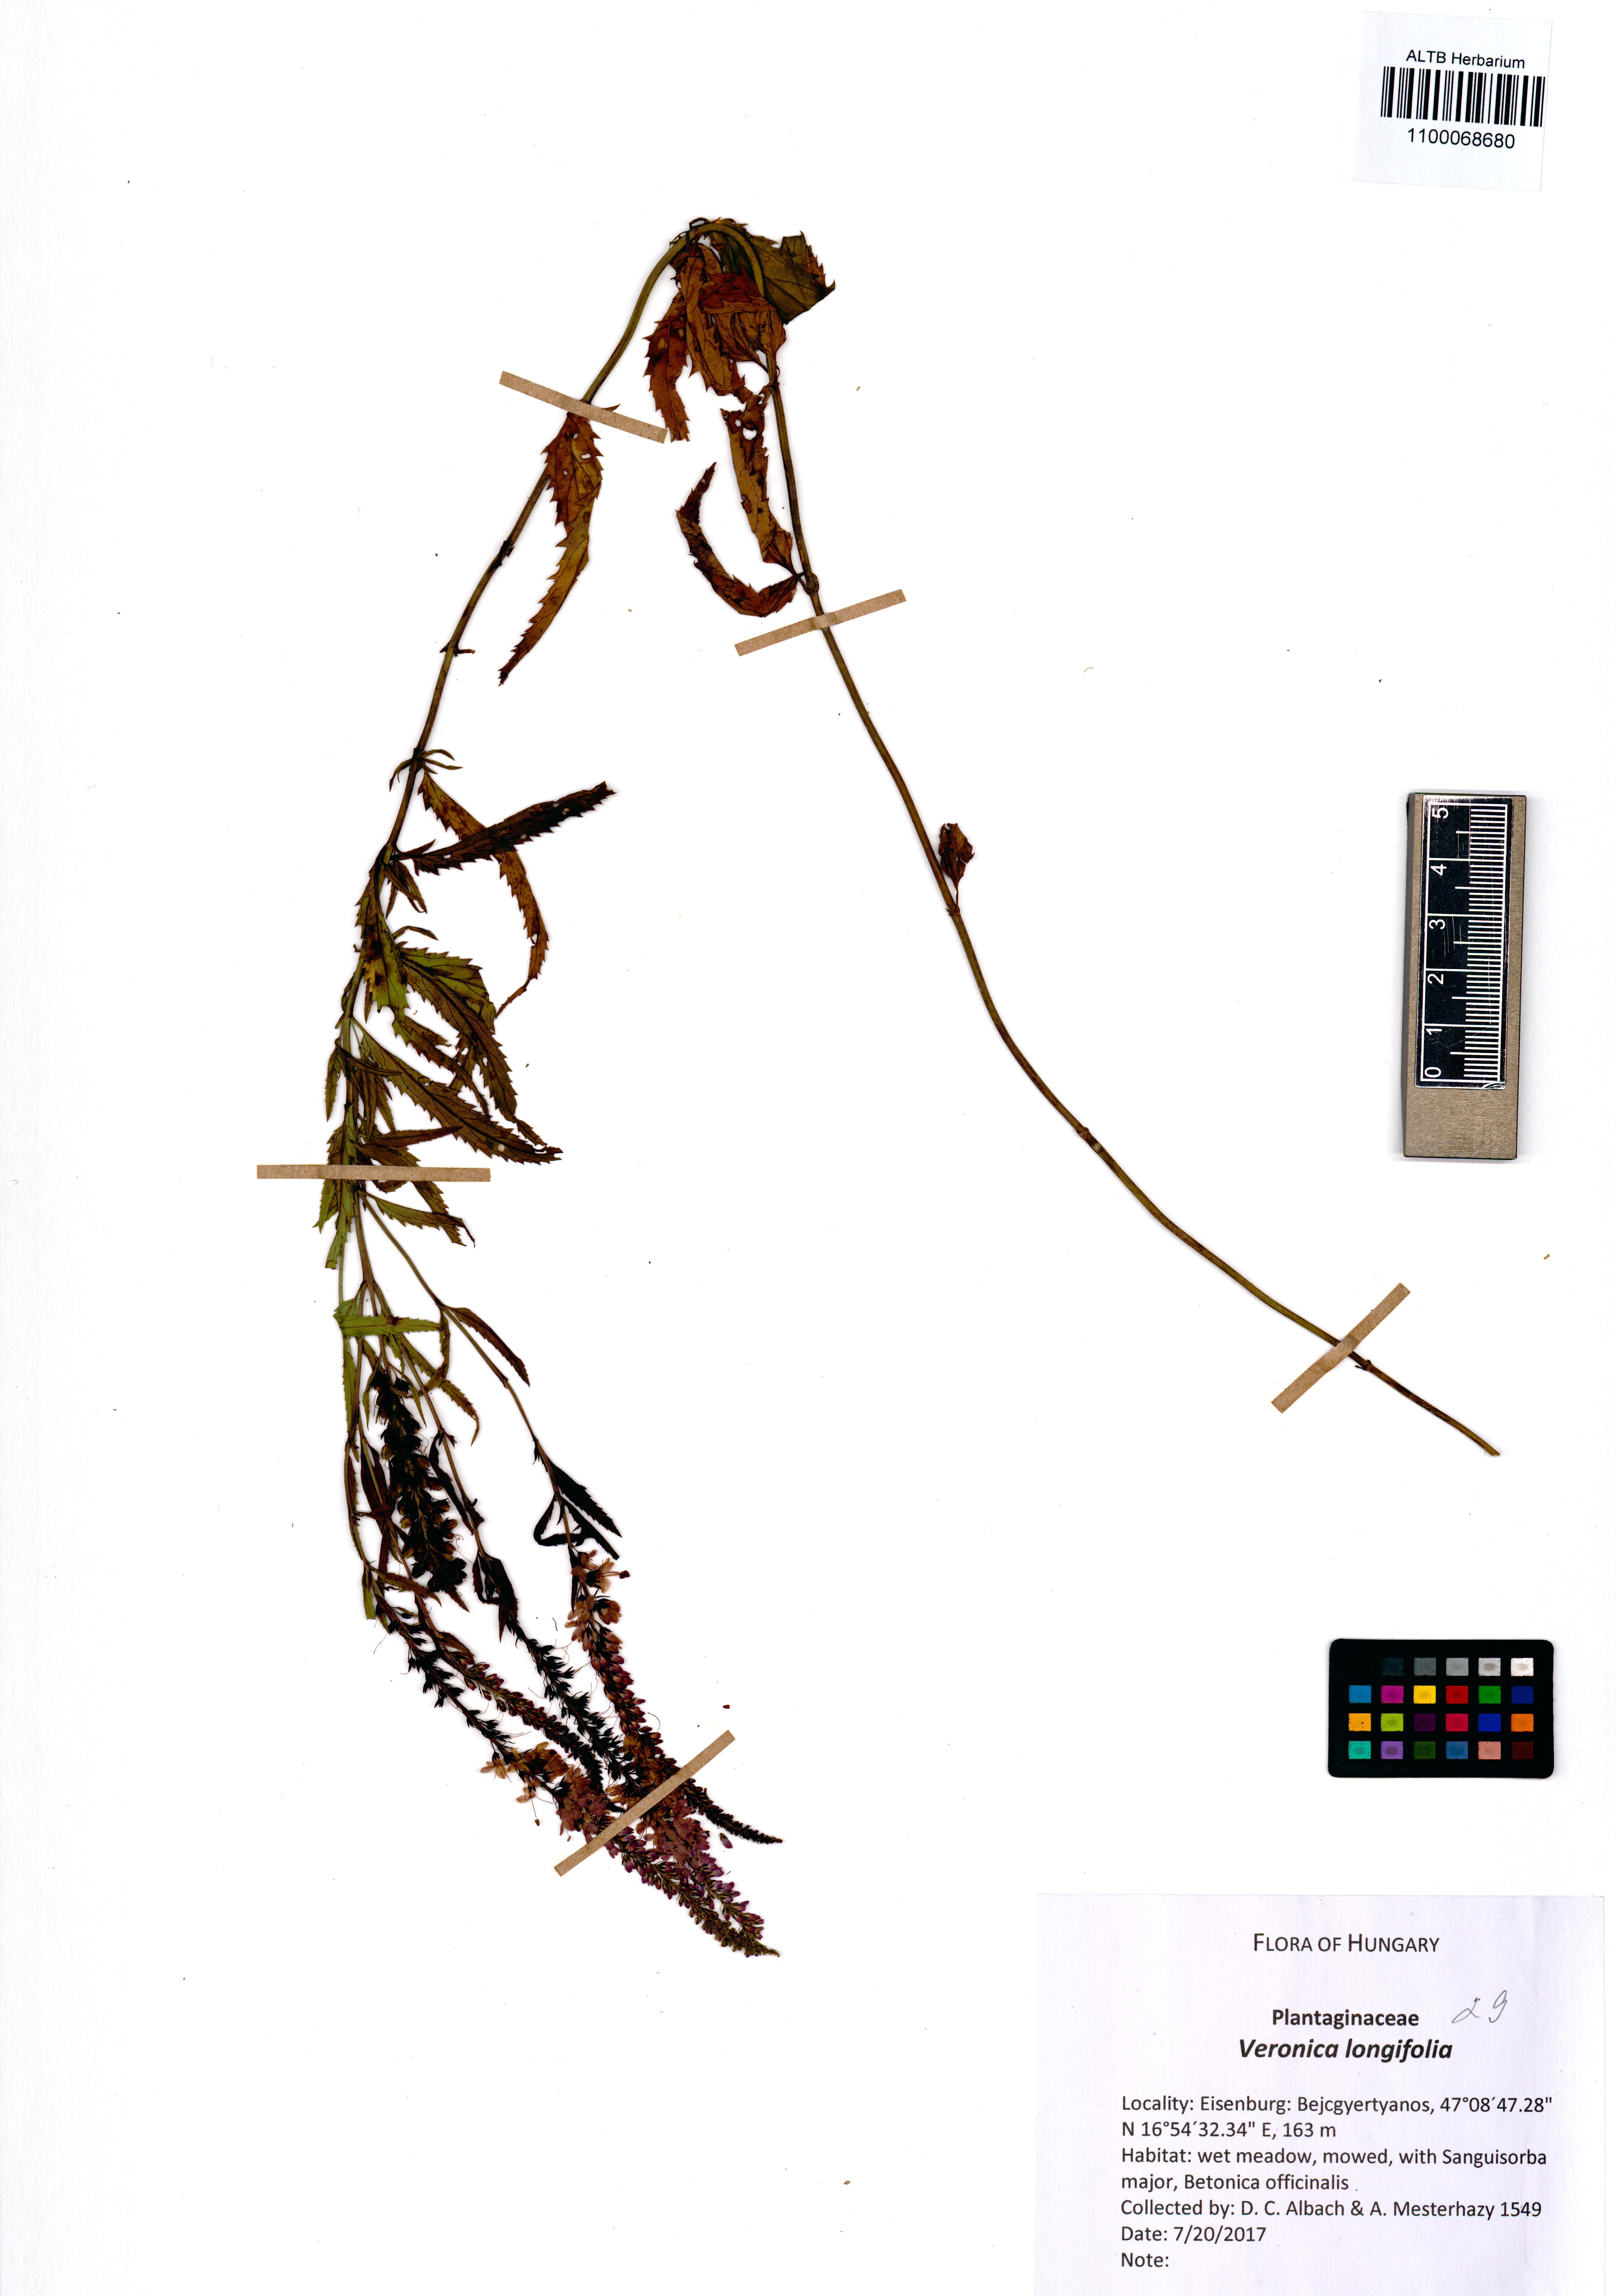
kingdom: Plantae
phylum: Tracheophyta
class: Magnoliopsida
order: Lamiales
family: Plantaginaceae
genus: Veronica
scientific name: Veronica longifolia
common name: Garden speedwell
